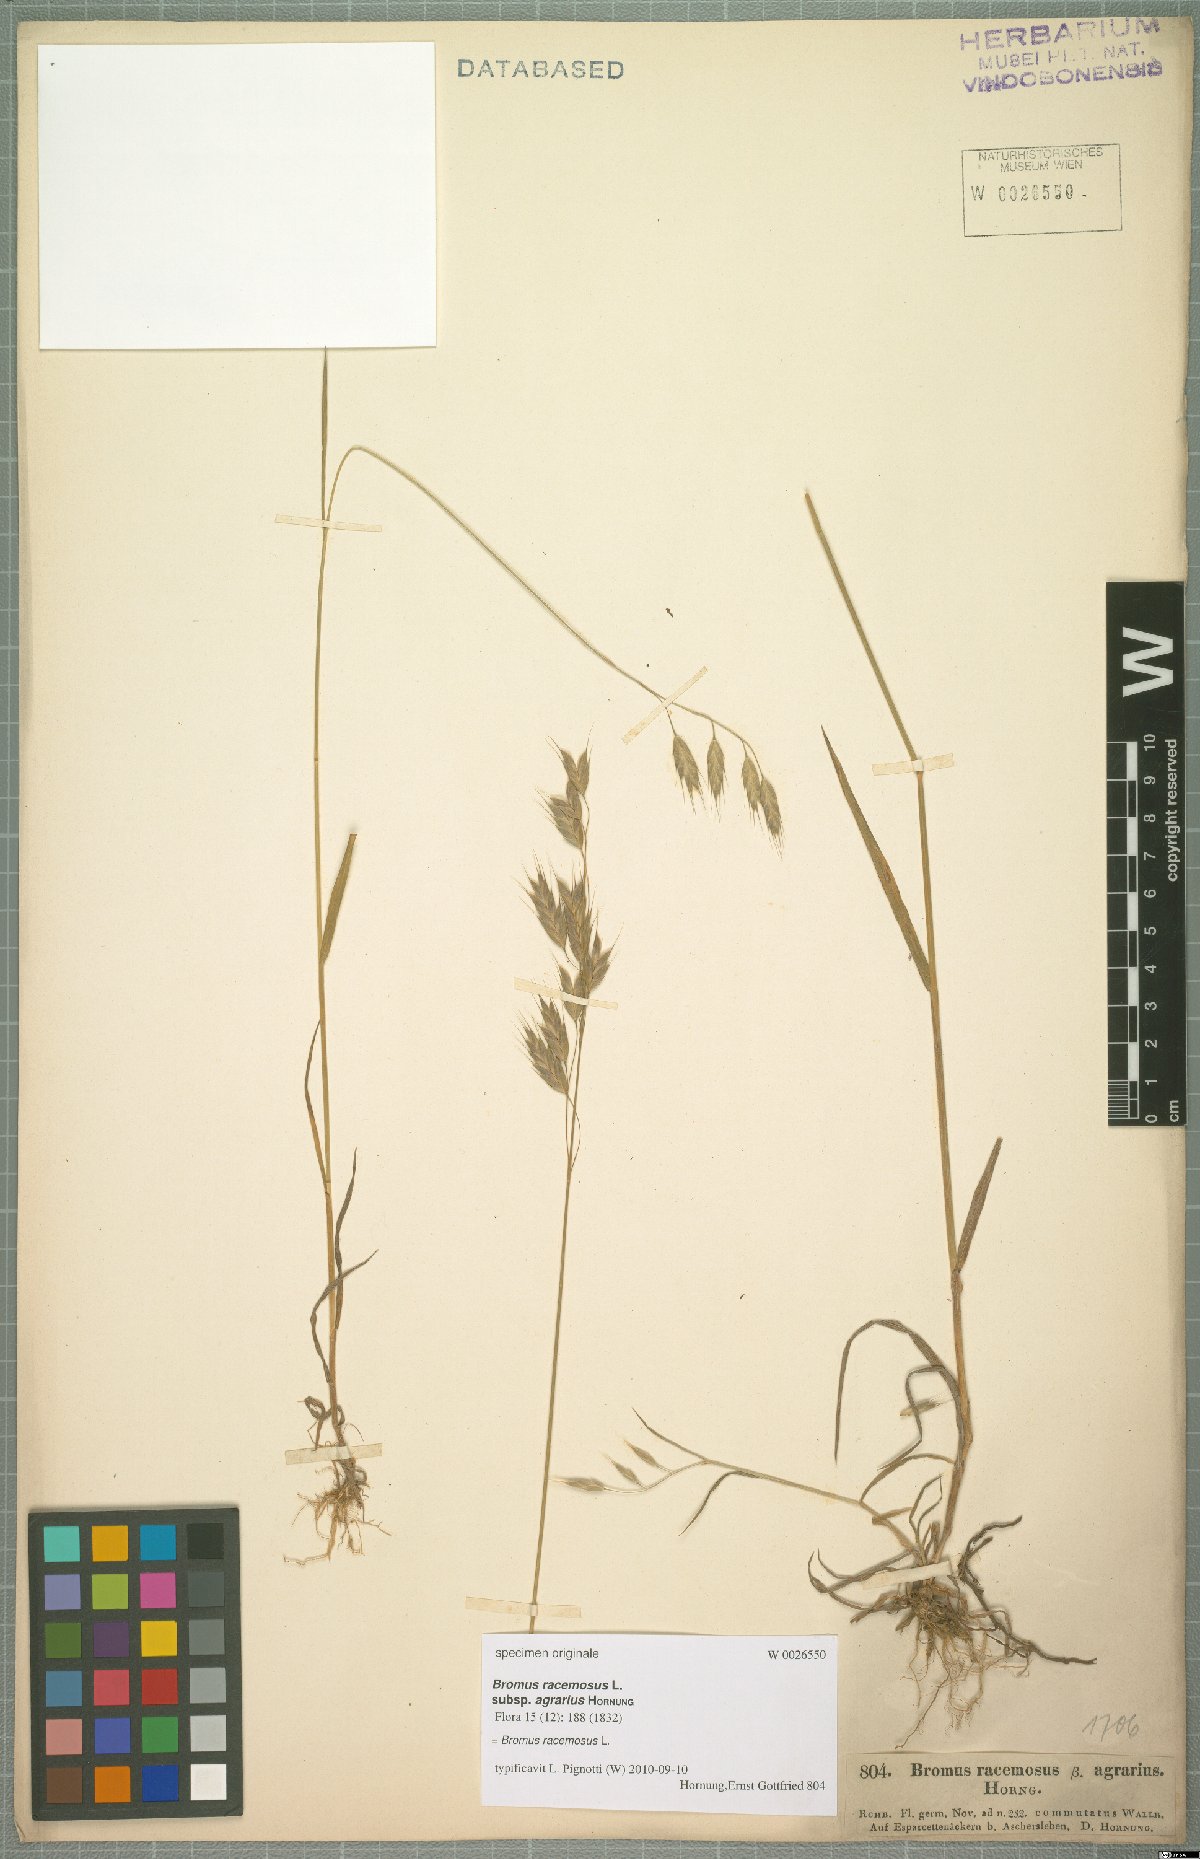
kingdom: Plantae
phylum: Tracheophyta
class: Liliopsida
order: Poales
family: Poaceae
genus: Bromus
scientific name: Bromus racemosus
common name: Bald brome
